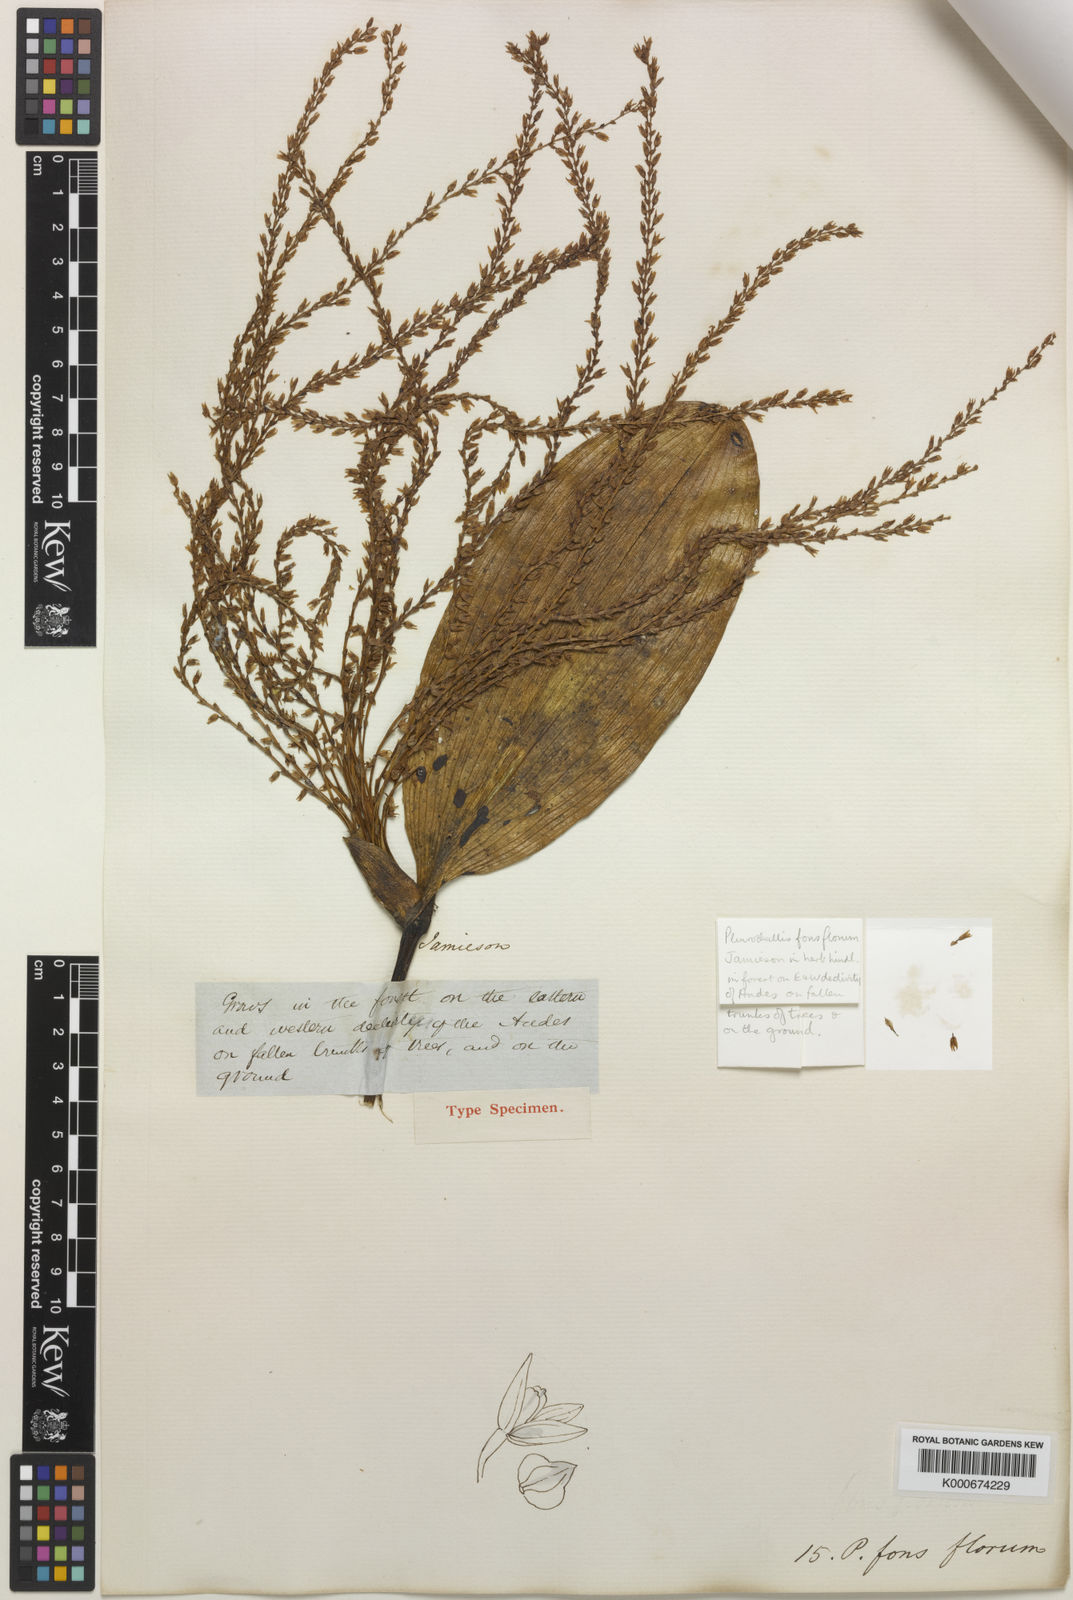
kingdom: Plantae
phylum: Tracheophyta
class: Liliopsida
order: Asparagales
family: Orchidaceae
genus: Stelis
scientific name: Stelis fonsflorum
